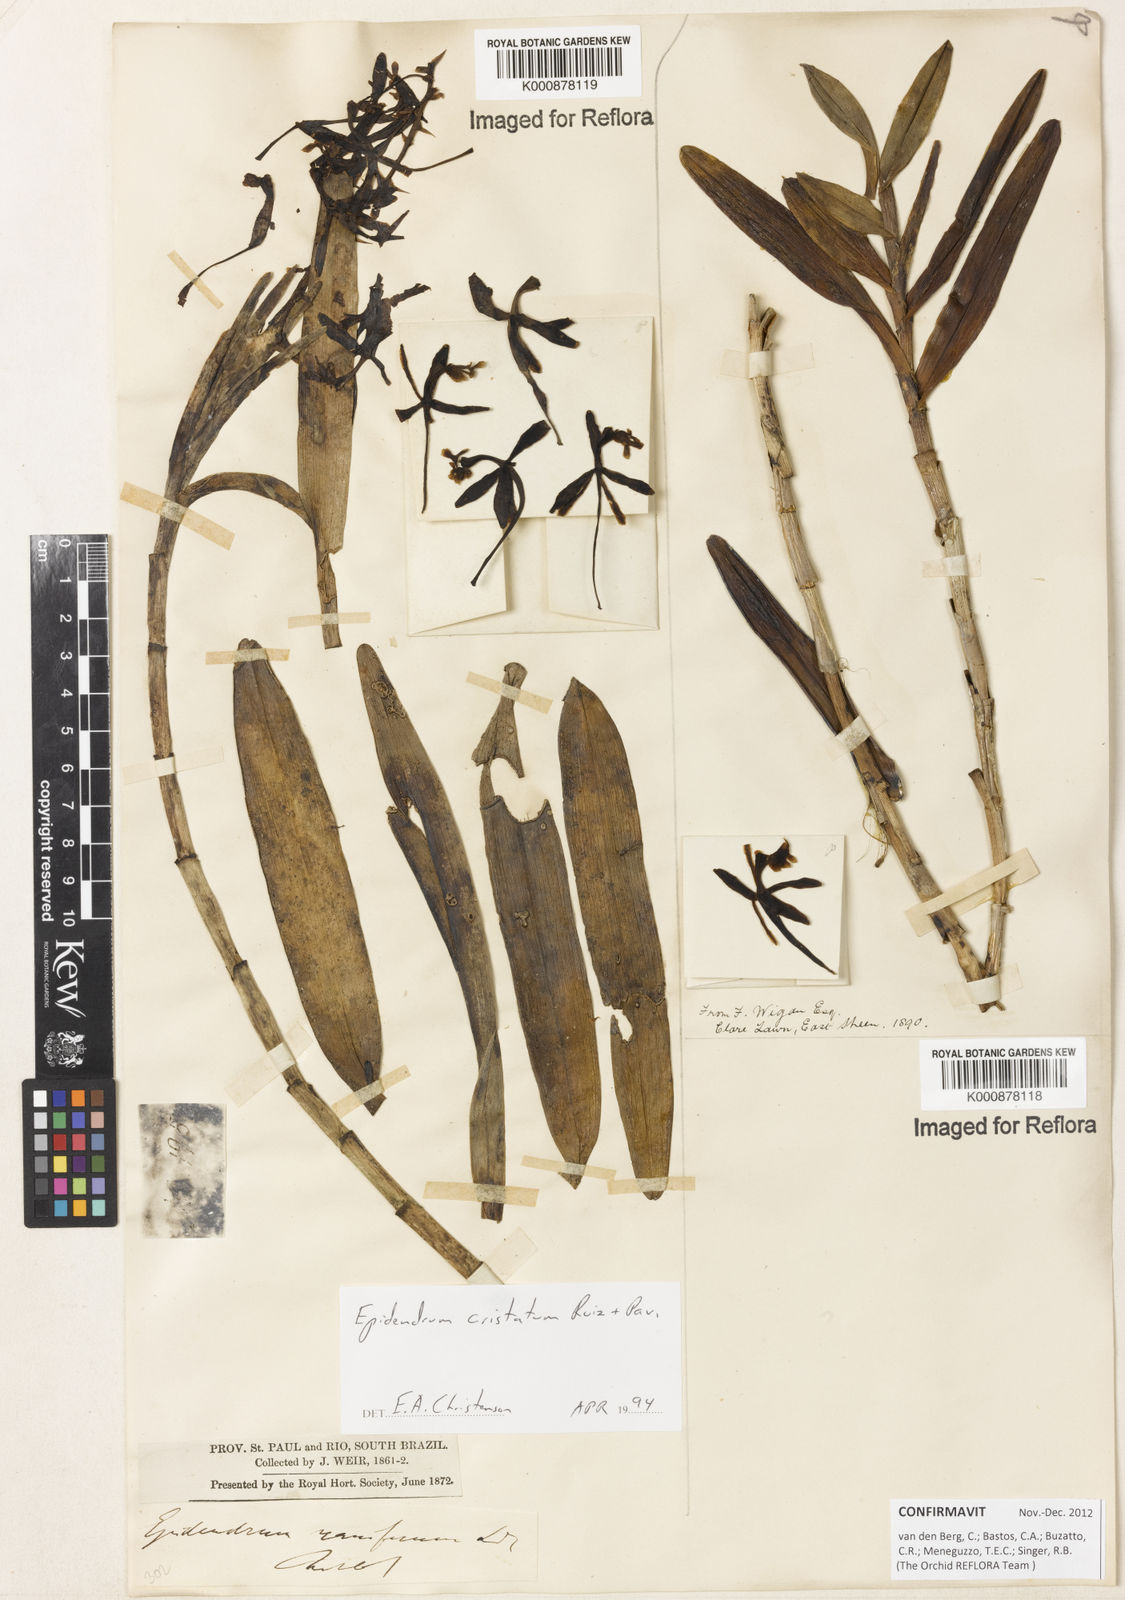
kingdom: Plantae
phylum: Tracheophyta
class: Liliopsida
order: Asparagales
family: Orchidaceae
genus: Epidendrum
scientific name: Epidendrum cristatum
